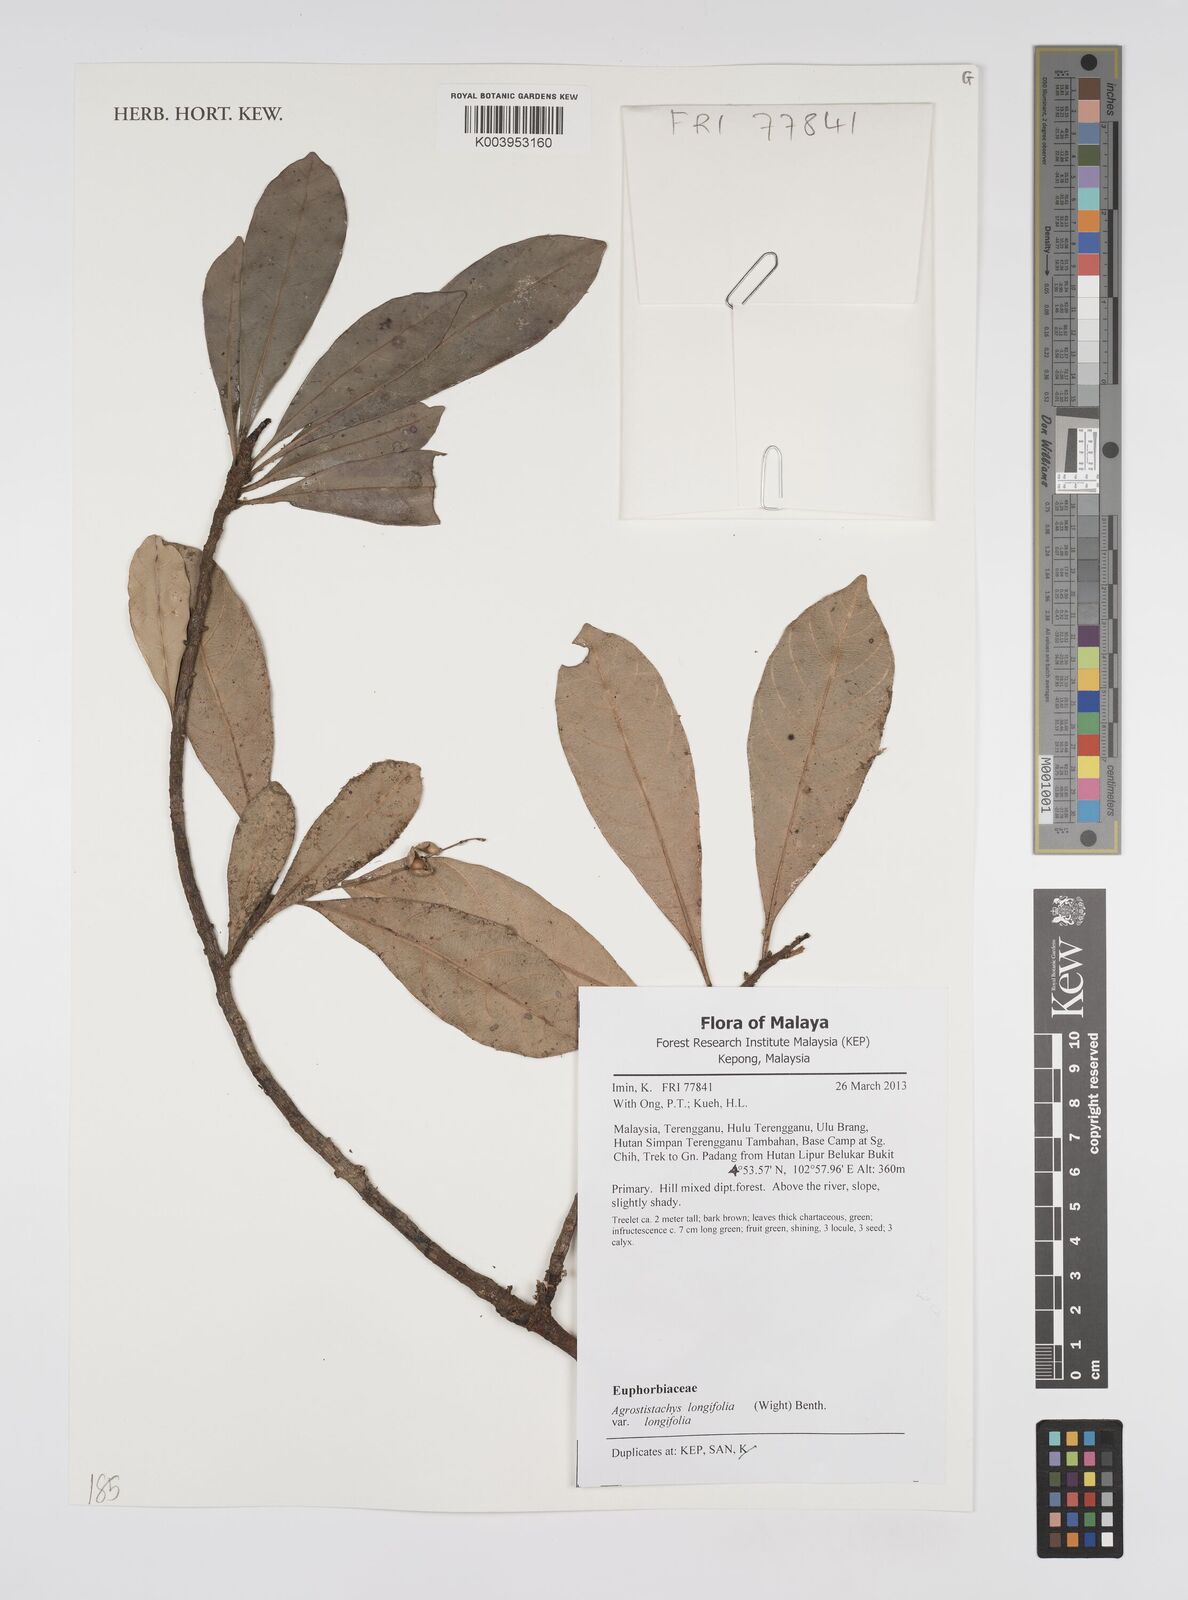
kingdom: Plantae
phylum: Tracheophyta
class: Magnoliopsida
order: Malpighiales
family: Euphorbiaceae
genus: Agrostistachys
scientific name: Agrostistachys borneensis
